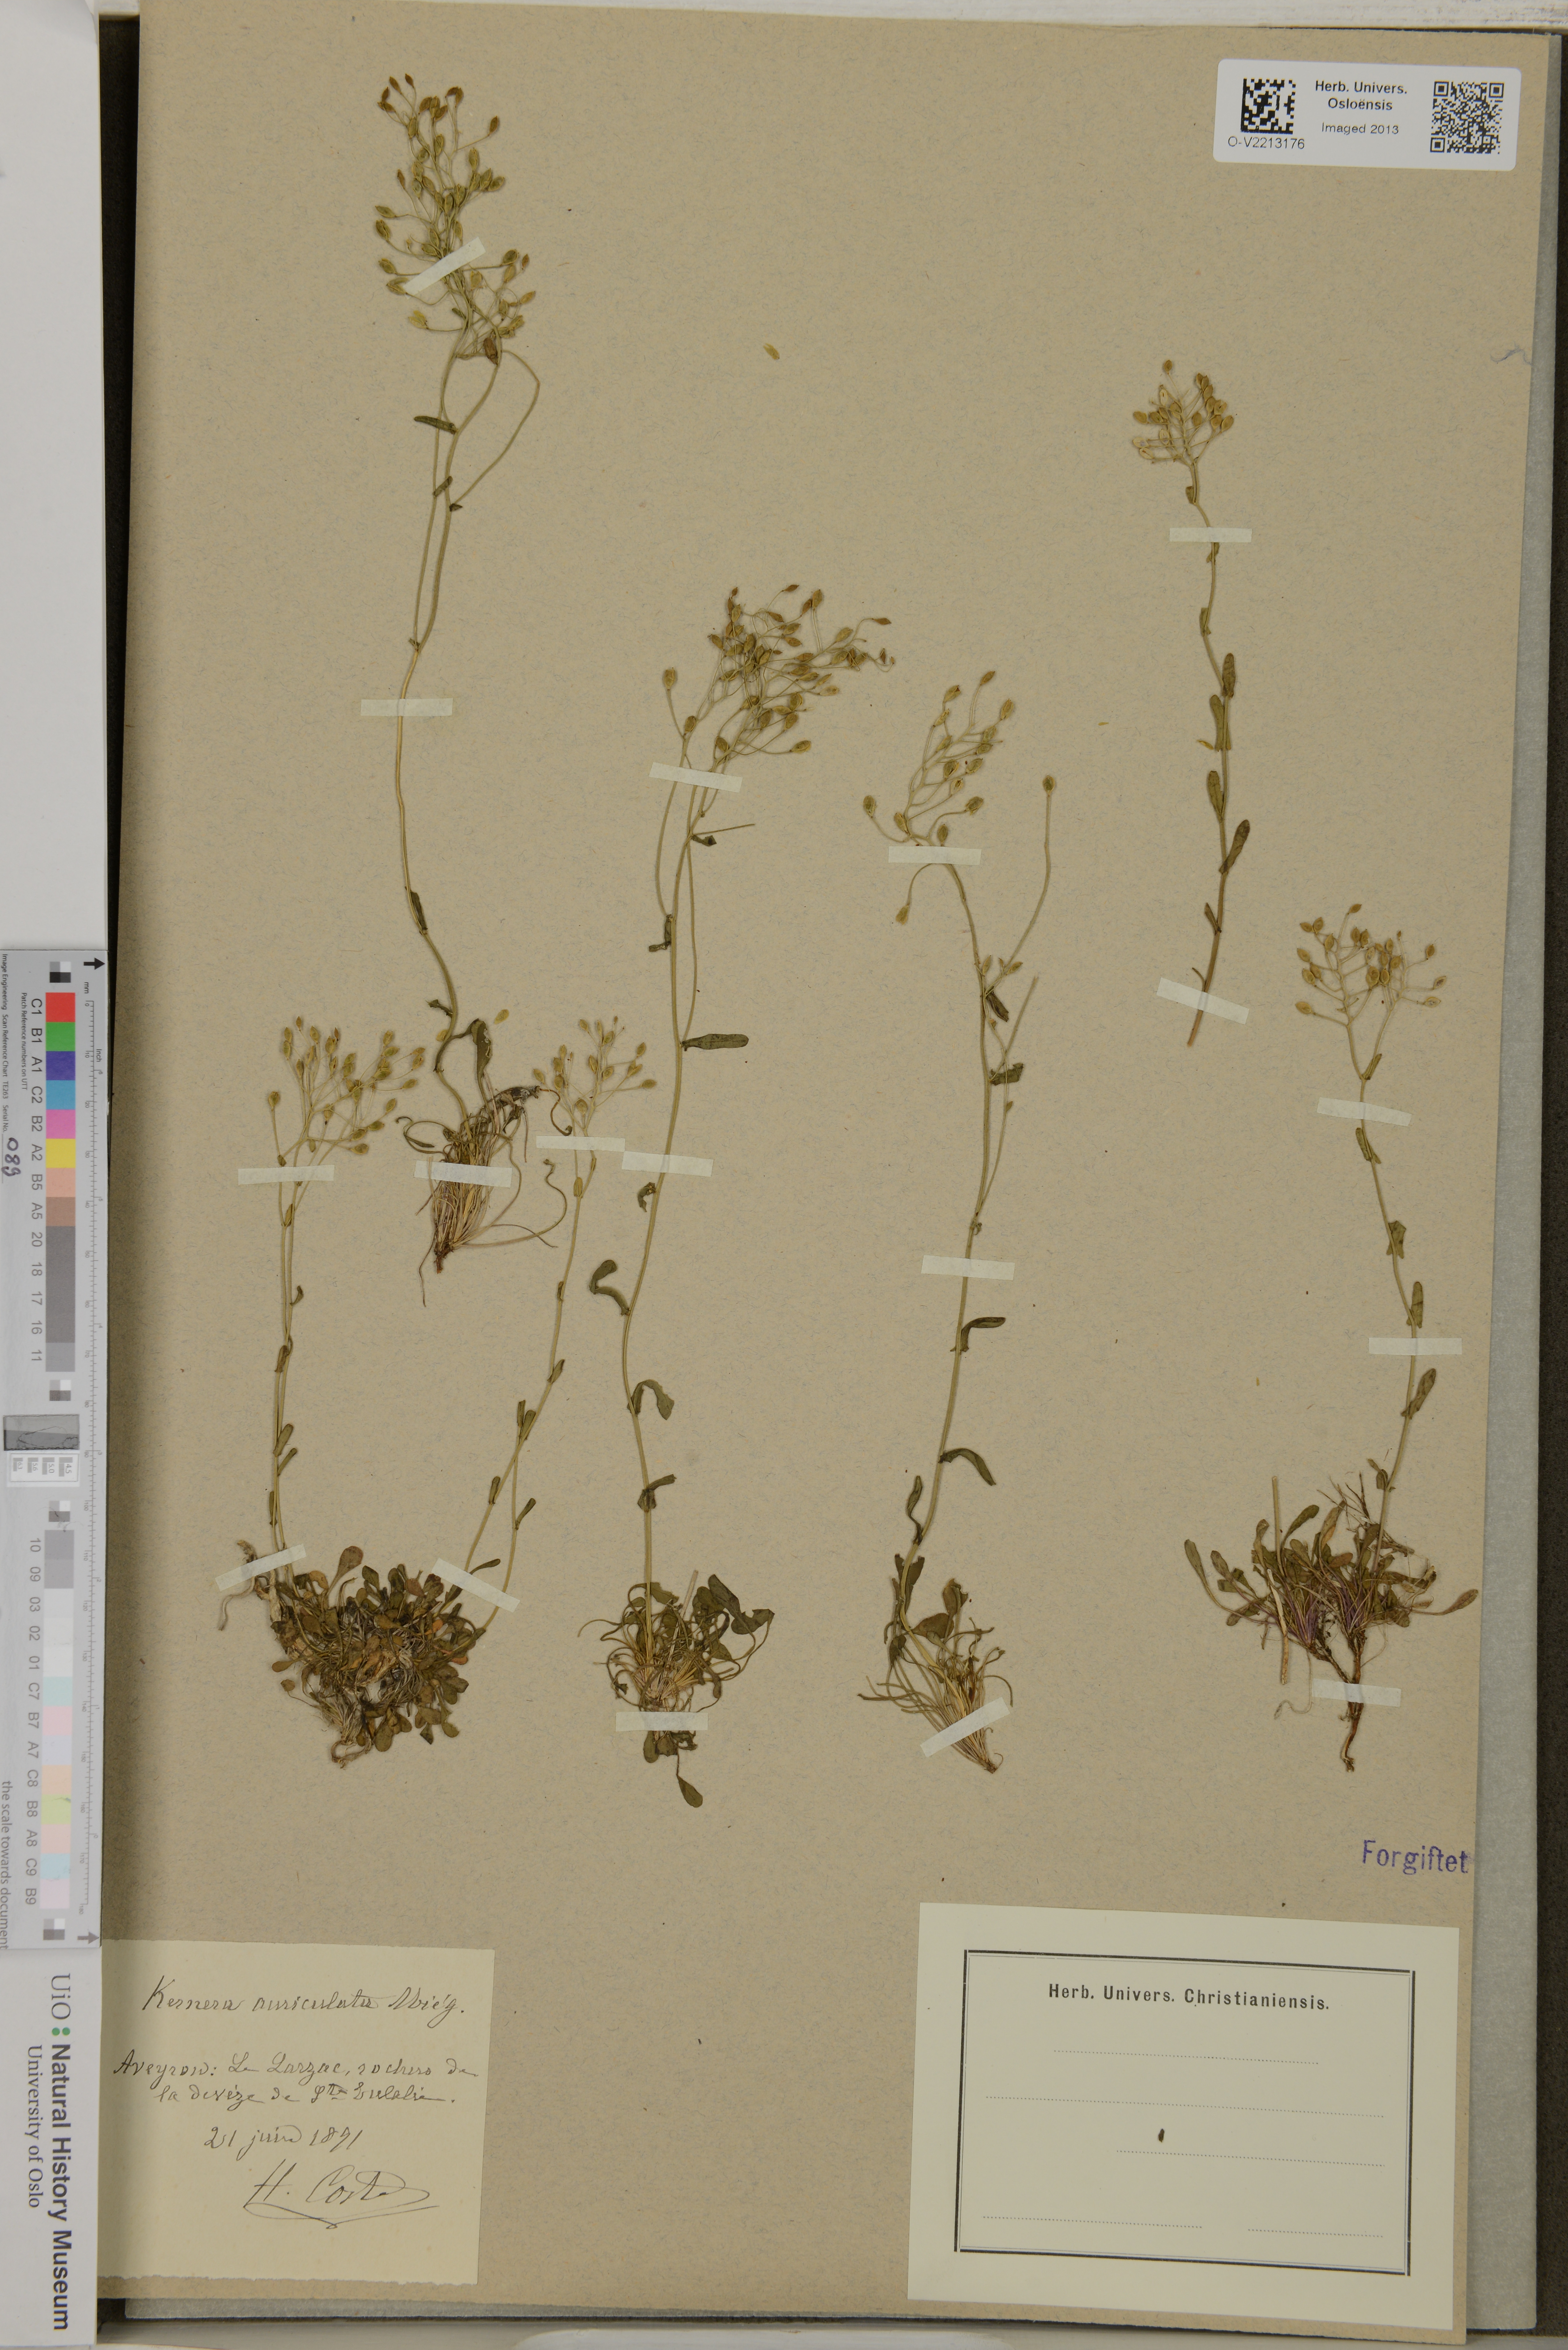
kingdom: Plantae
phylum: Tracheophyta
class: Magnoliopsida
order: Brassicales
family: Brassicaceae
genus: Kernera
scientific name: Kernera saxatilis
